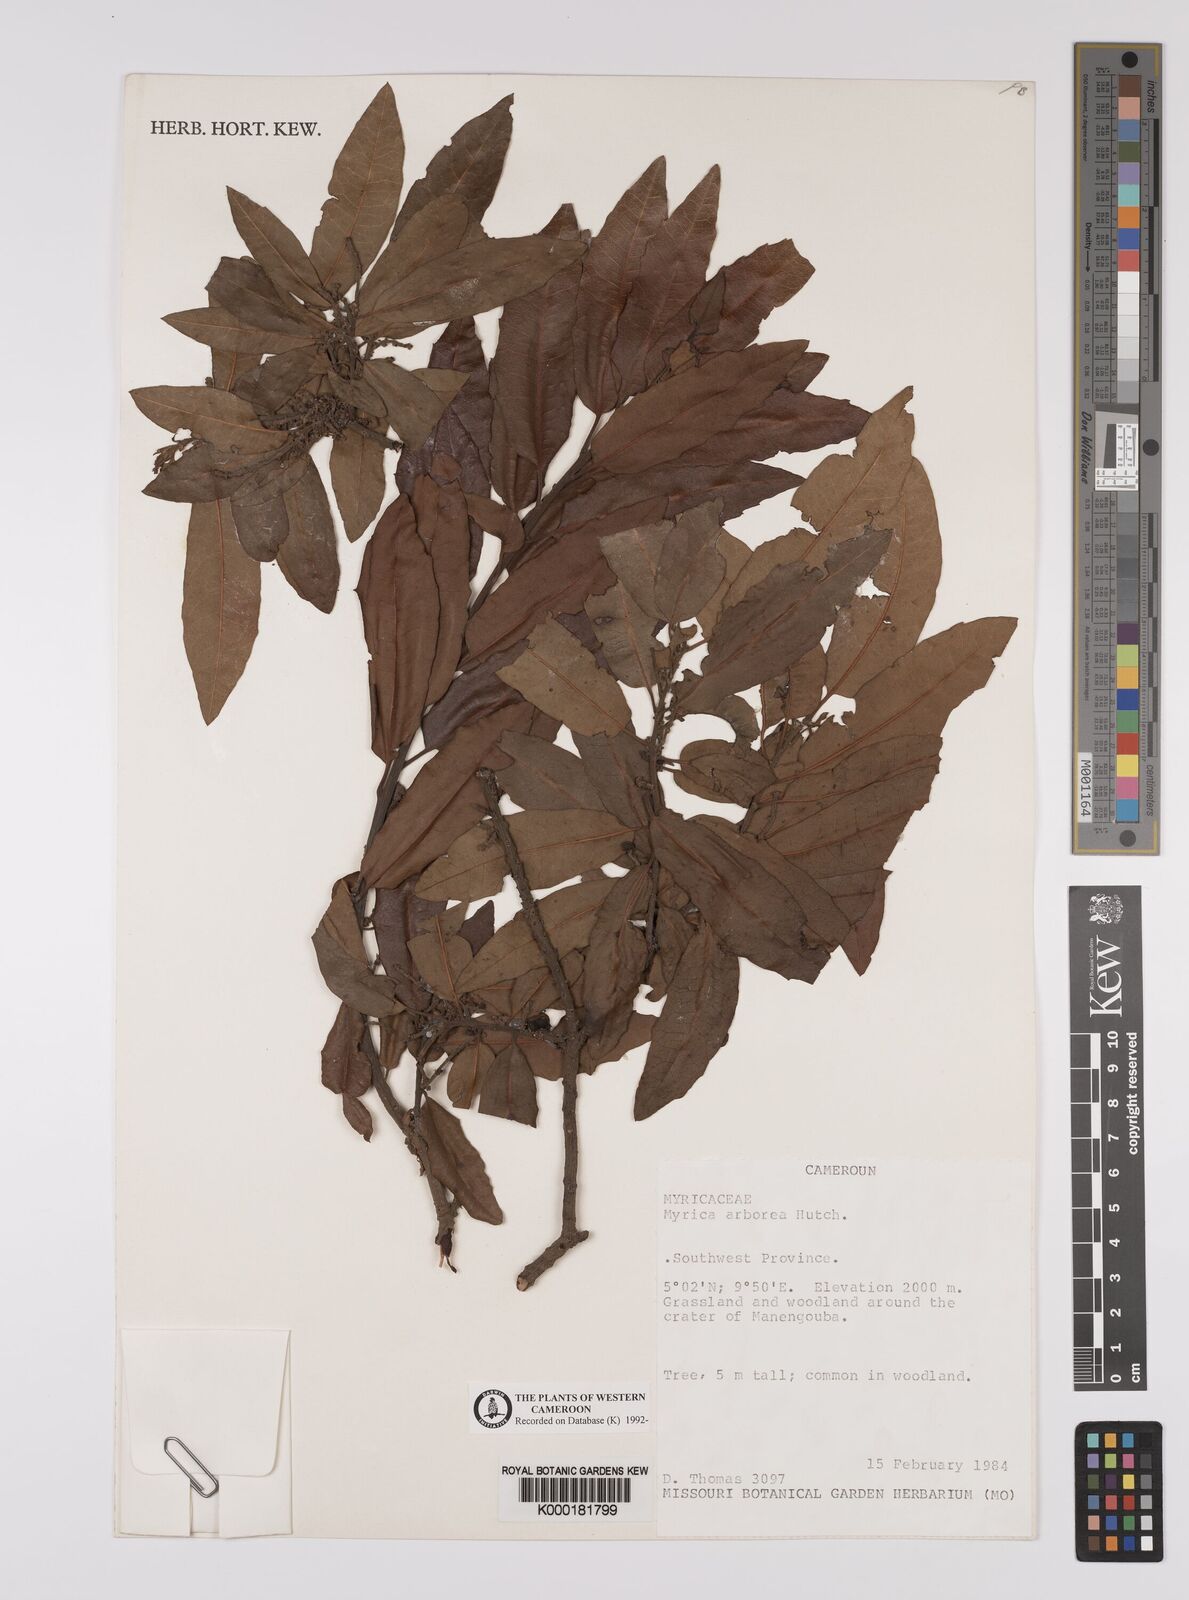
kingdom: Plantae
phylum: Tracheophyta
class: Magnoliopsida
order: Fagales
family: Myricaceae
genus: Morella
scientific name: Morella arborea
